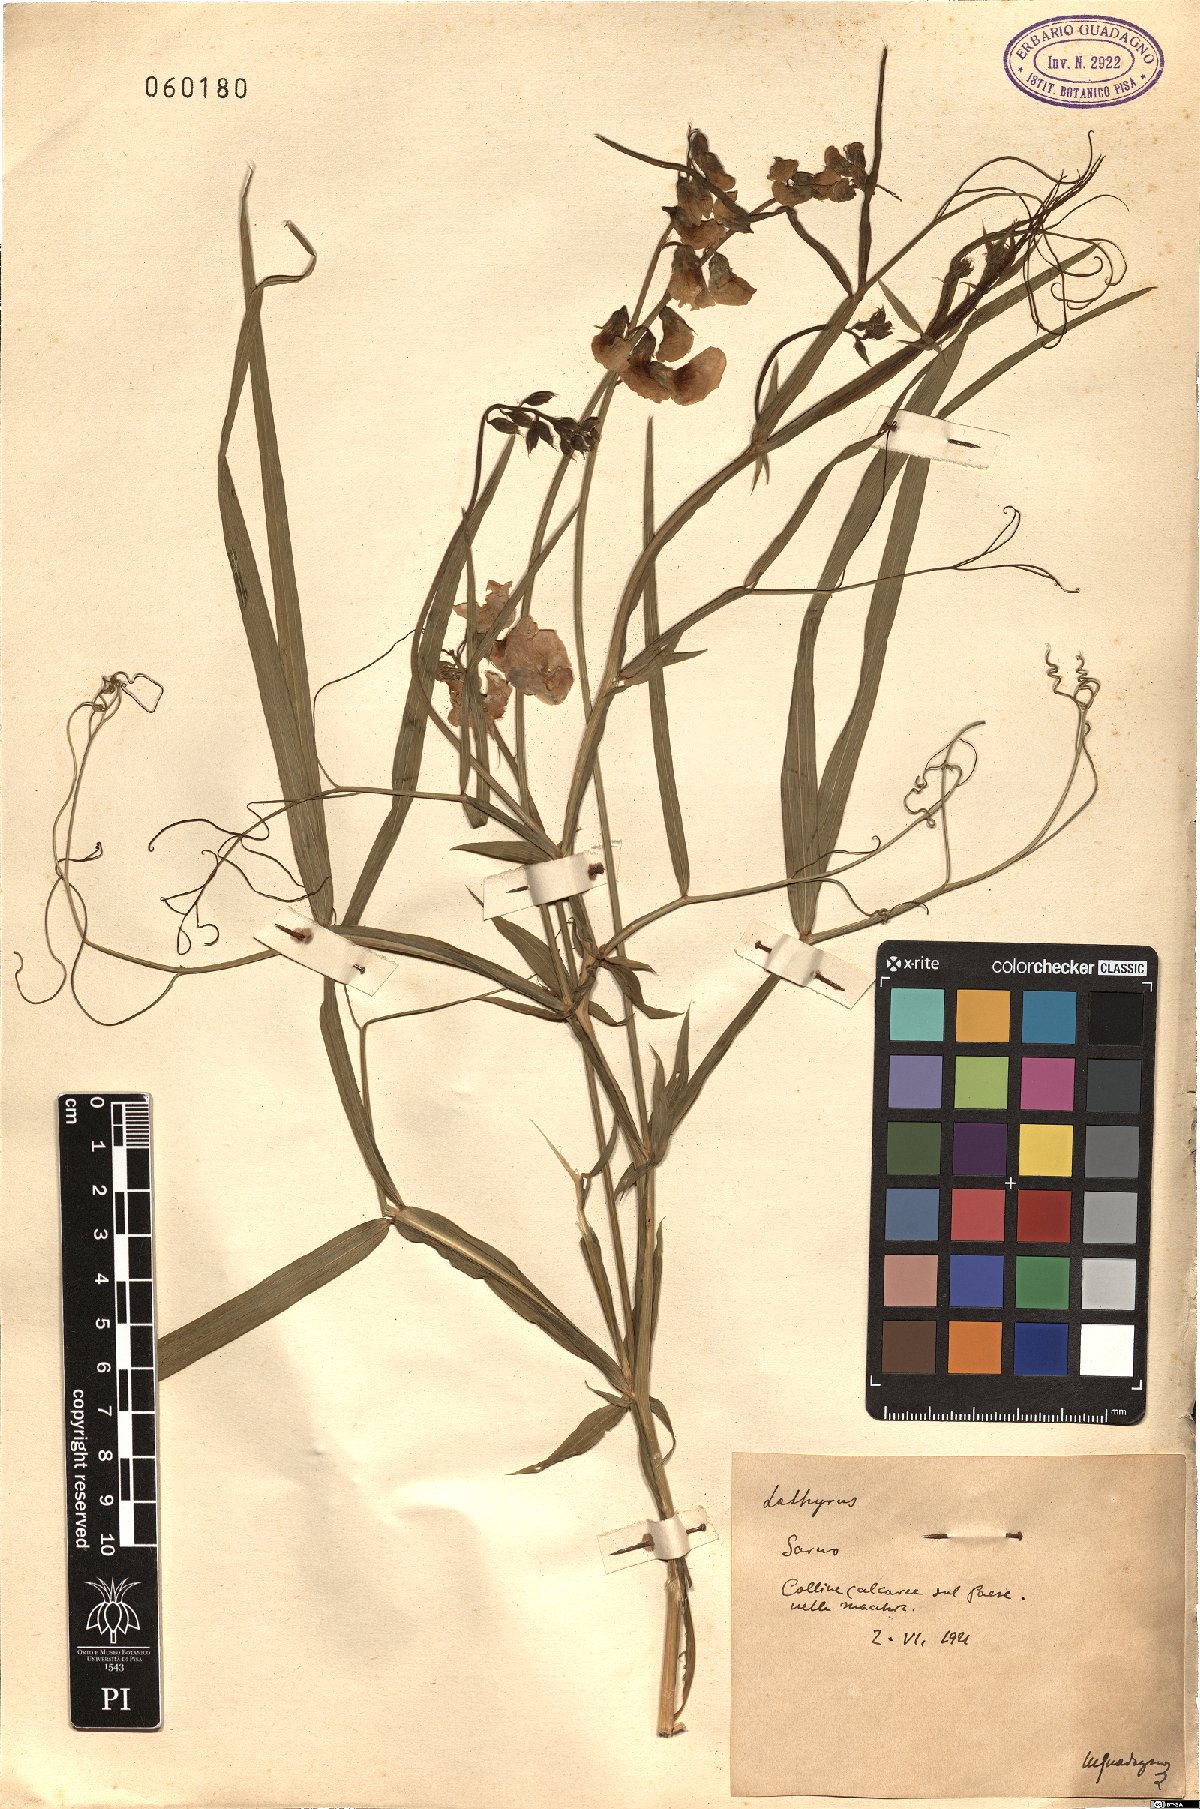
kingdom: Plantae
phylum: Tracheophyta
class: Magnoliopsida
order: Fabales
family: Fabaceae
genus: Lathyrus
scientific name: Lathyrus
